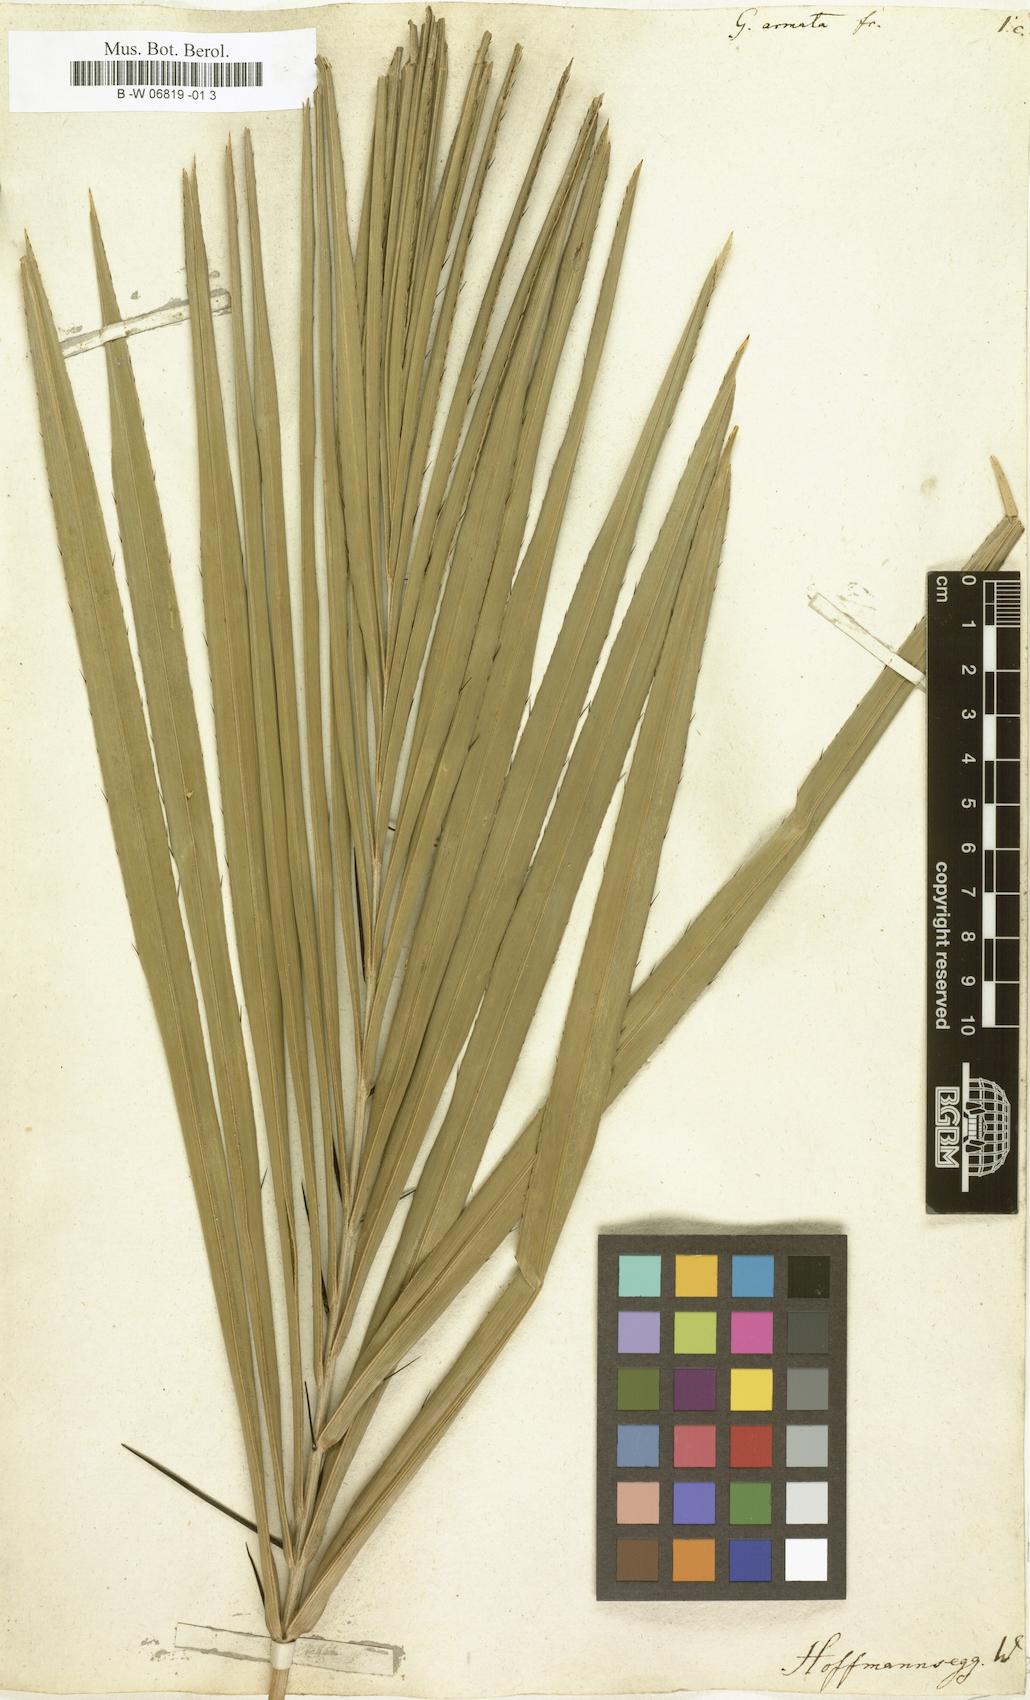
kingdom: Plantae
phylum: Tracheophyta
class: Magnoliopsida
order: Rosales
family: Urticaceae
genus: Girardinia
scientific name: Girardinia diversifolia
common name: Himalayan-nettle
